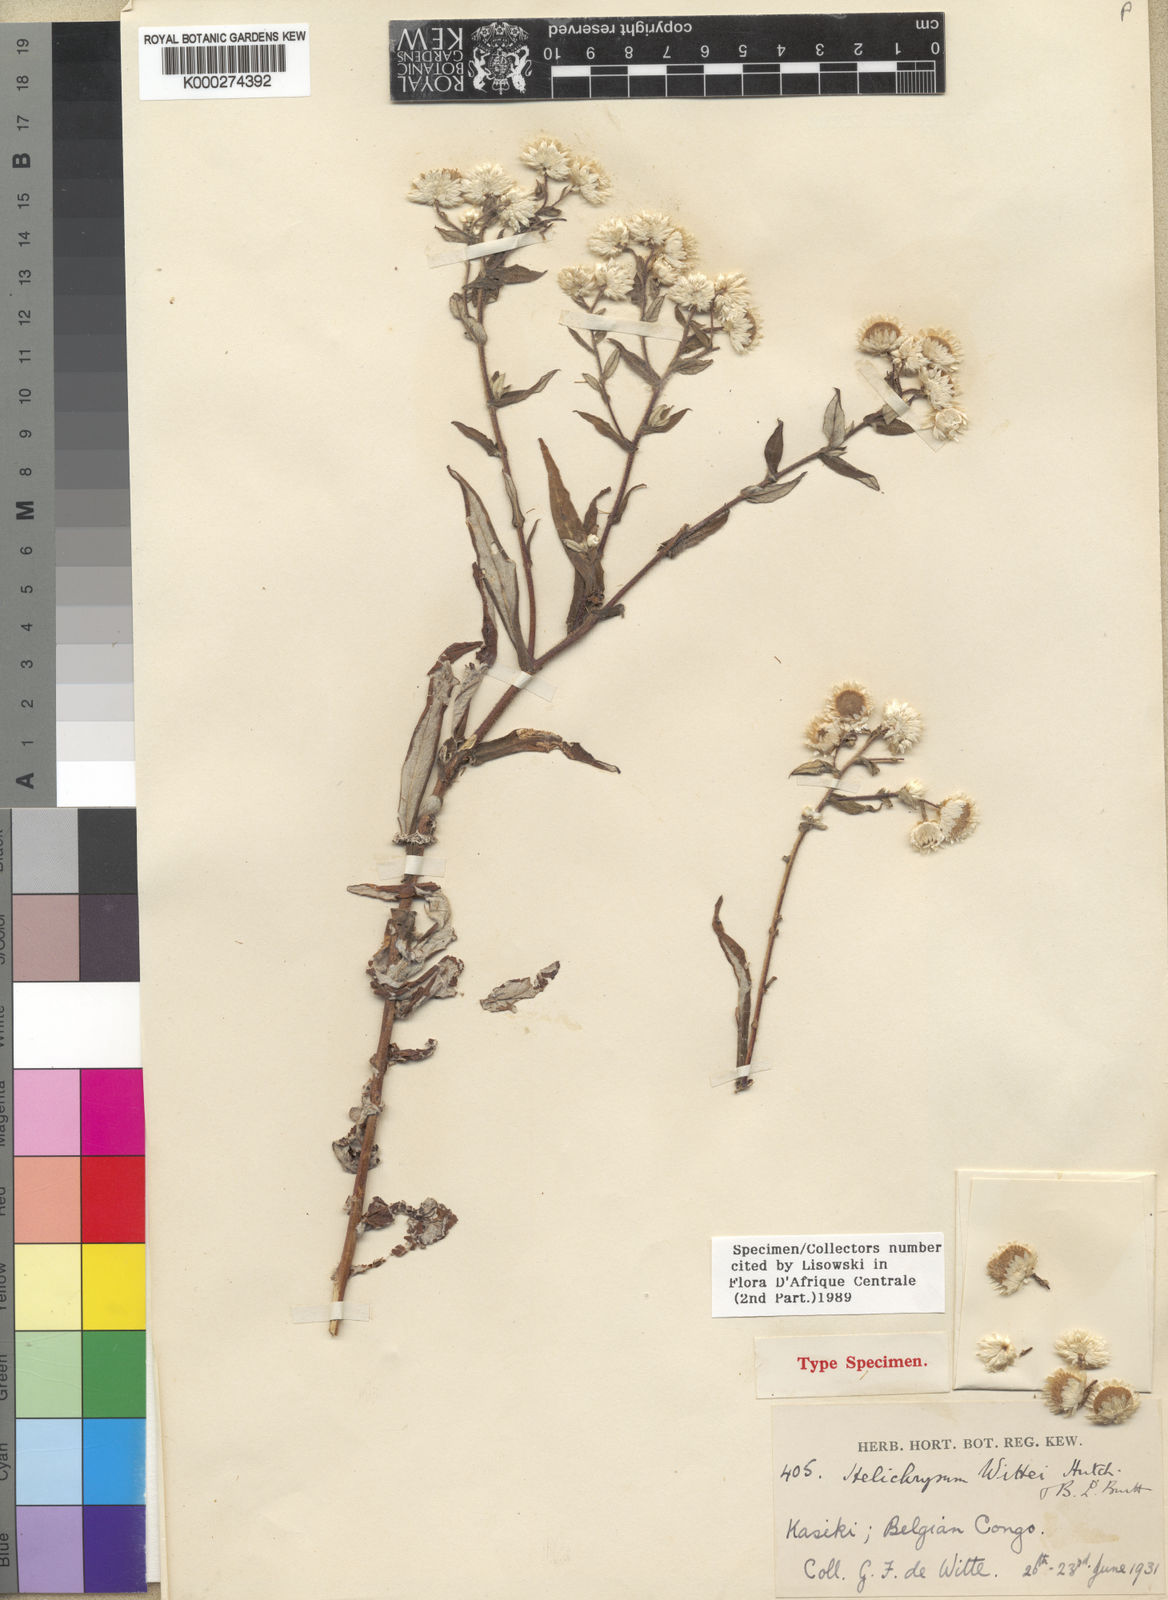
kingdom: Plantae
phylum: Tracheophyta
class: Magnoliopsida
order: Asterales
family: Asteraceae
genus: Helichrysum
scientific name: Helichrysum gaharoense
